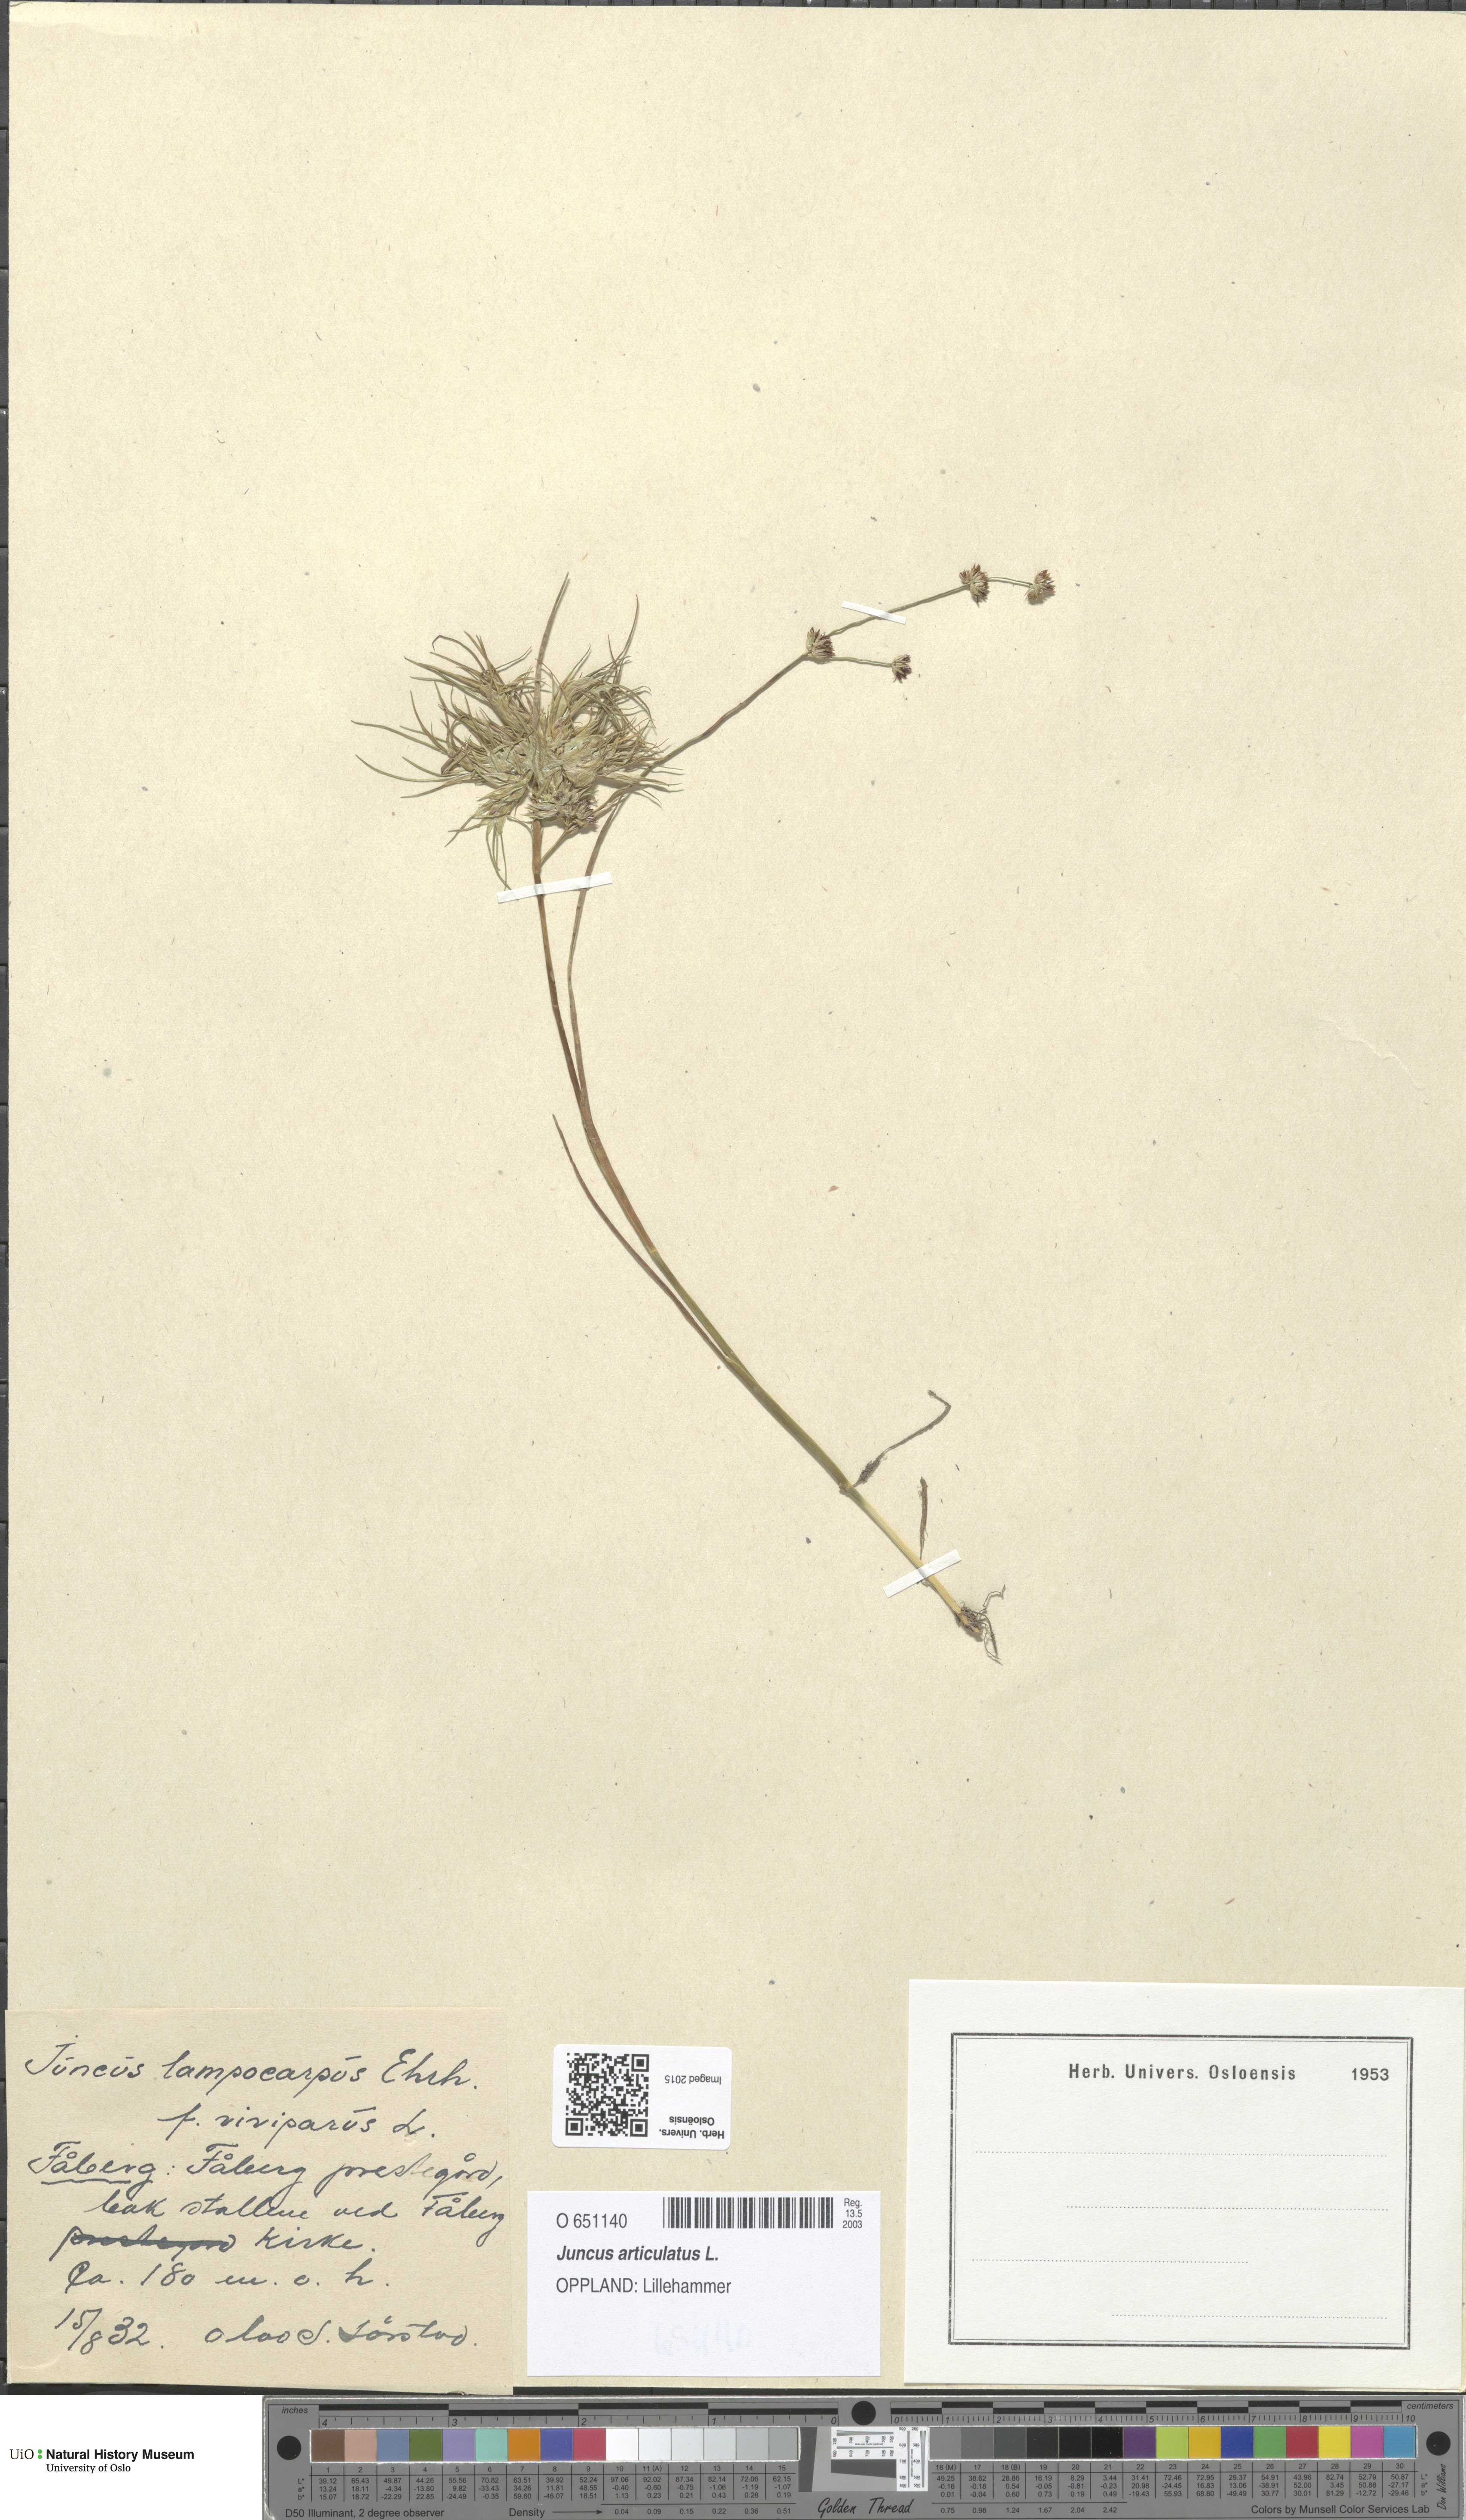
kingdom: Plantae
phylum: Tracheophyta
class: Liliopsida
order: Poales
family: Juncaceae
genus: Juncus
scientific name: Juncus articulatus
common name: Jointed rush
